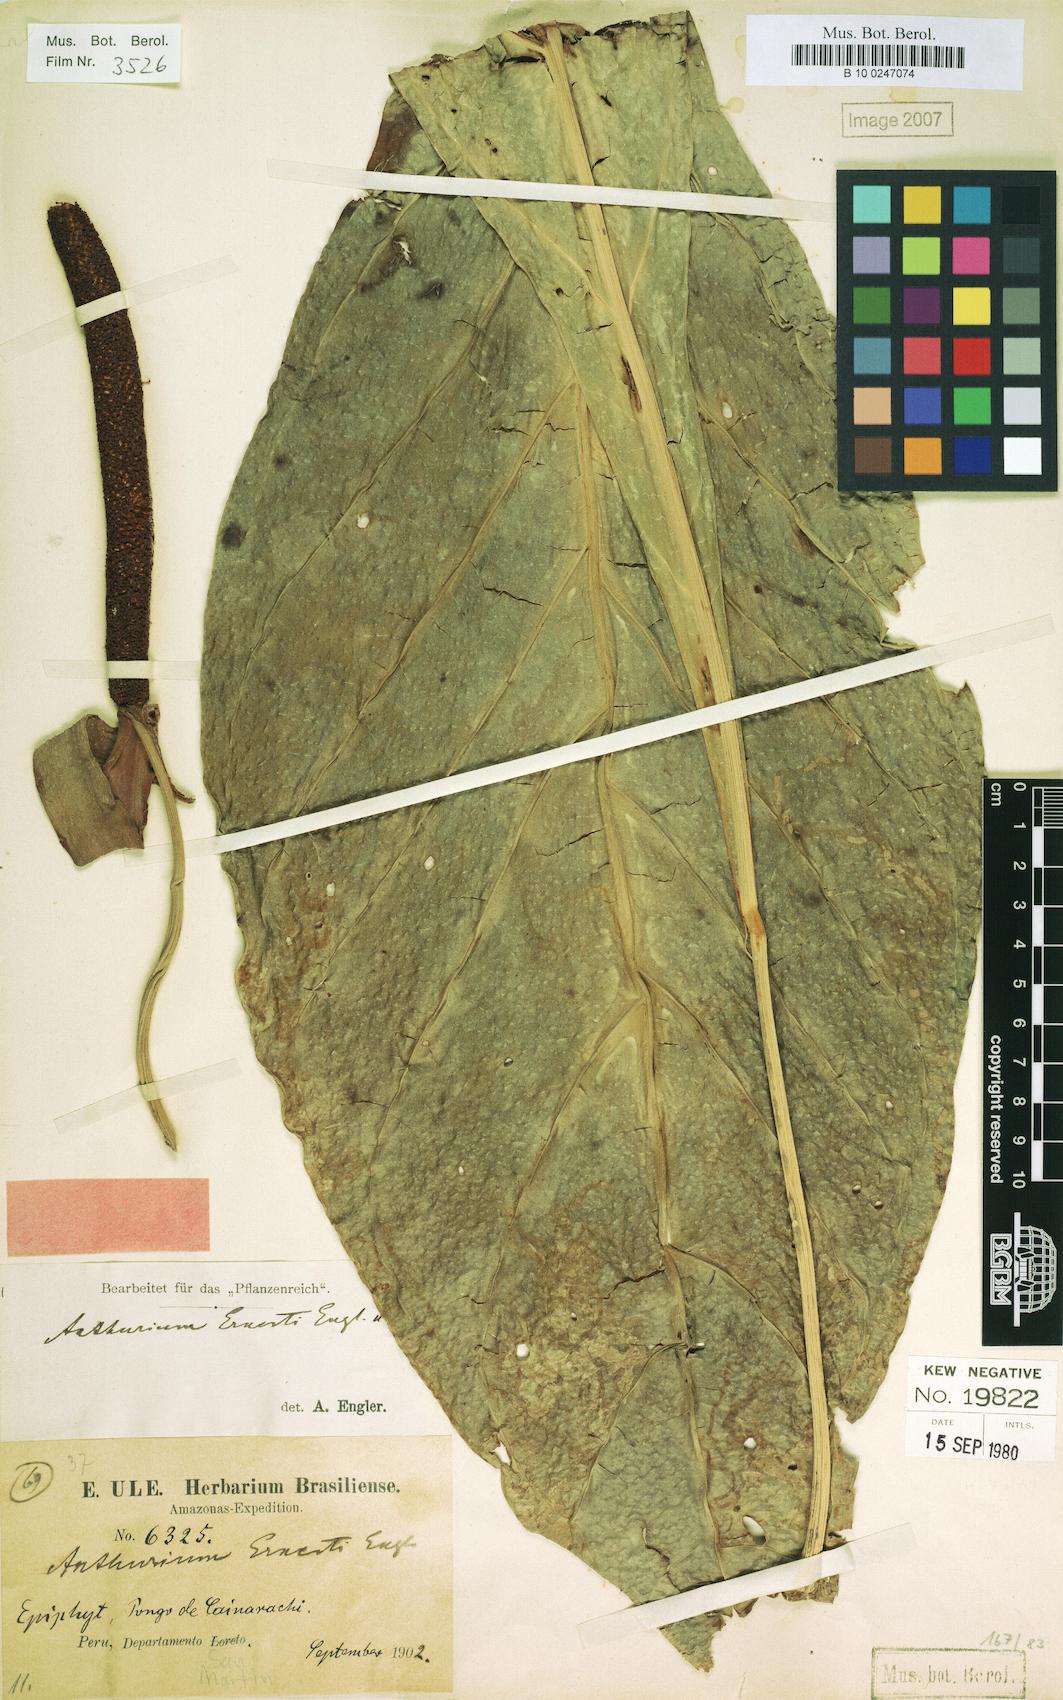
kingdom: Plantae
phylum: Tracheophyta
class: Liliopsida
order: Alismatales
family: Araceae
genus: Anthurium
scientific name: Anthurium ernesti
